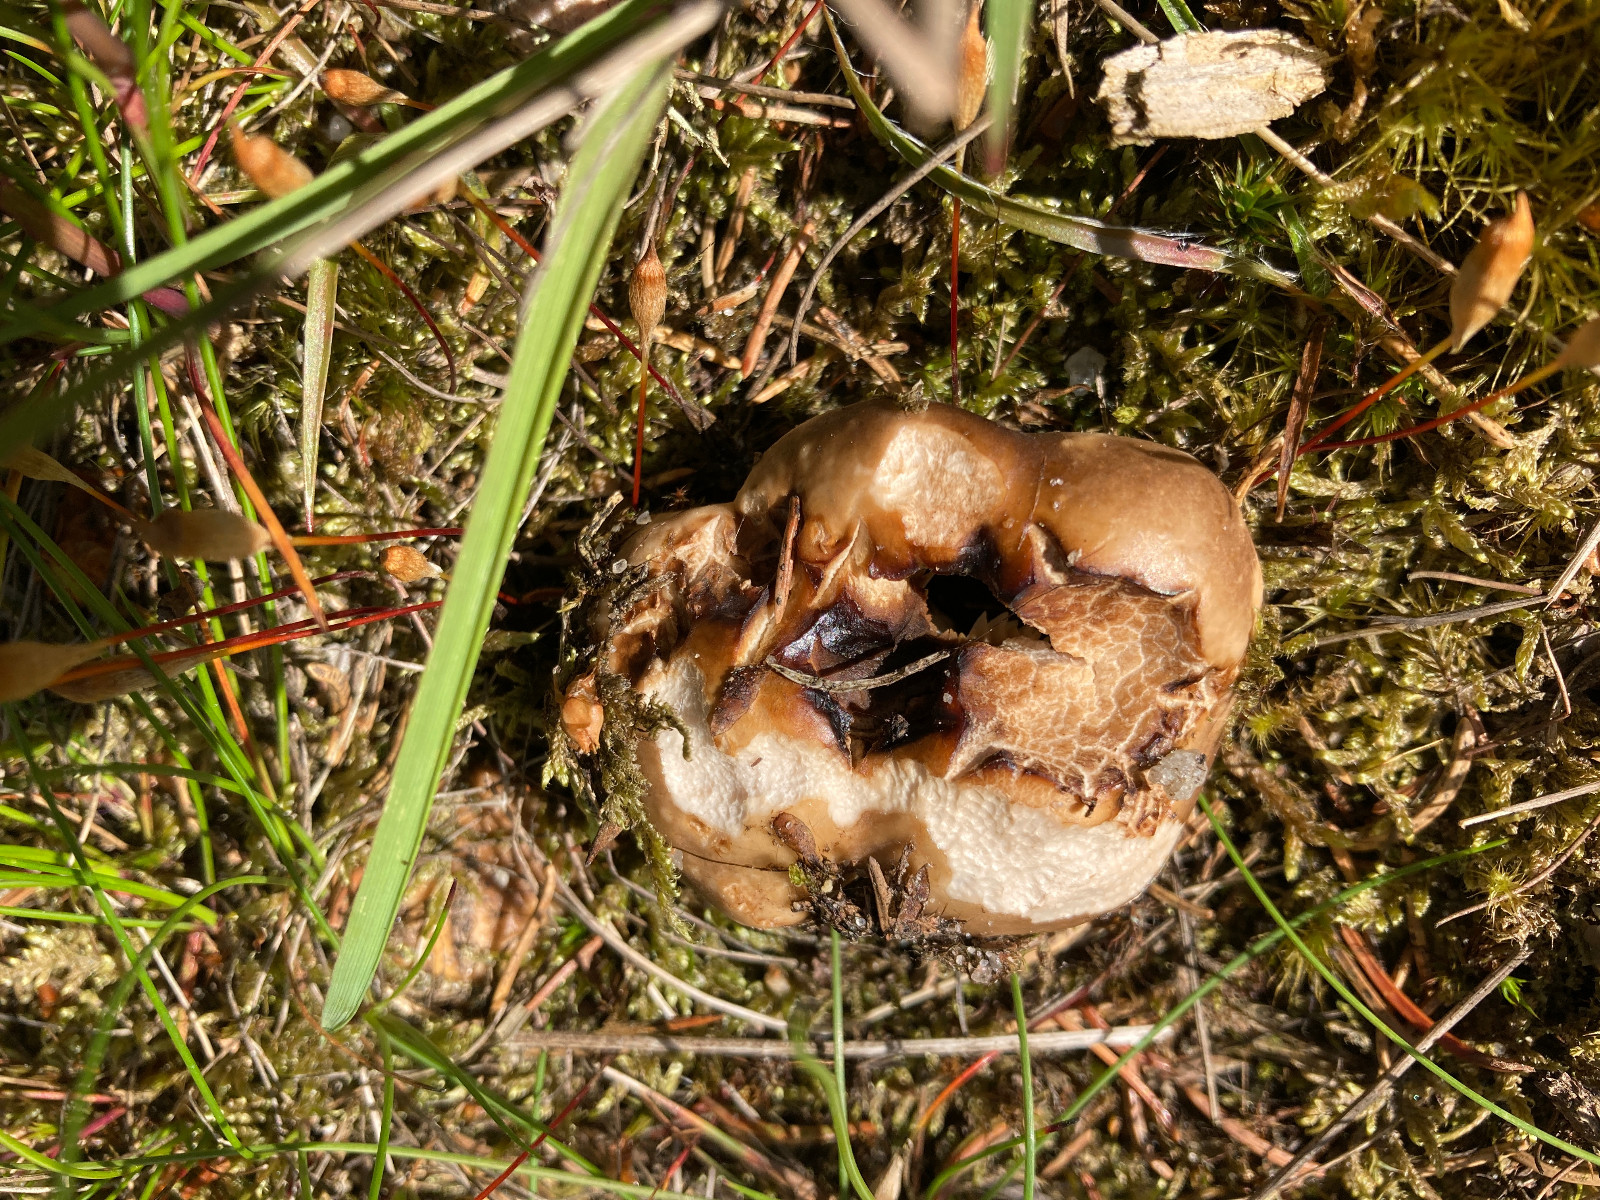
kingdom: Fungi
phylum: Basidiomycota
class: Agaricomycetes
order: Russulales
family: Russulaceae
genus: Russula
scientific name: Russula adusta
